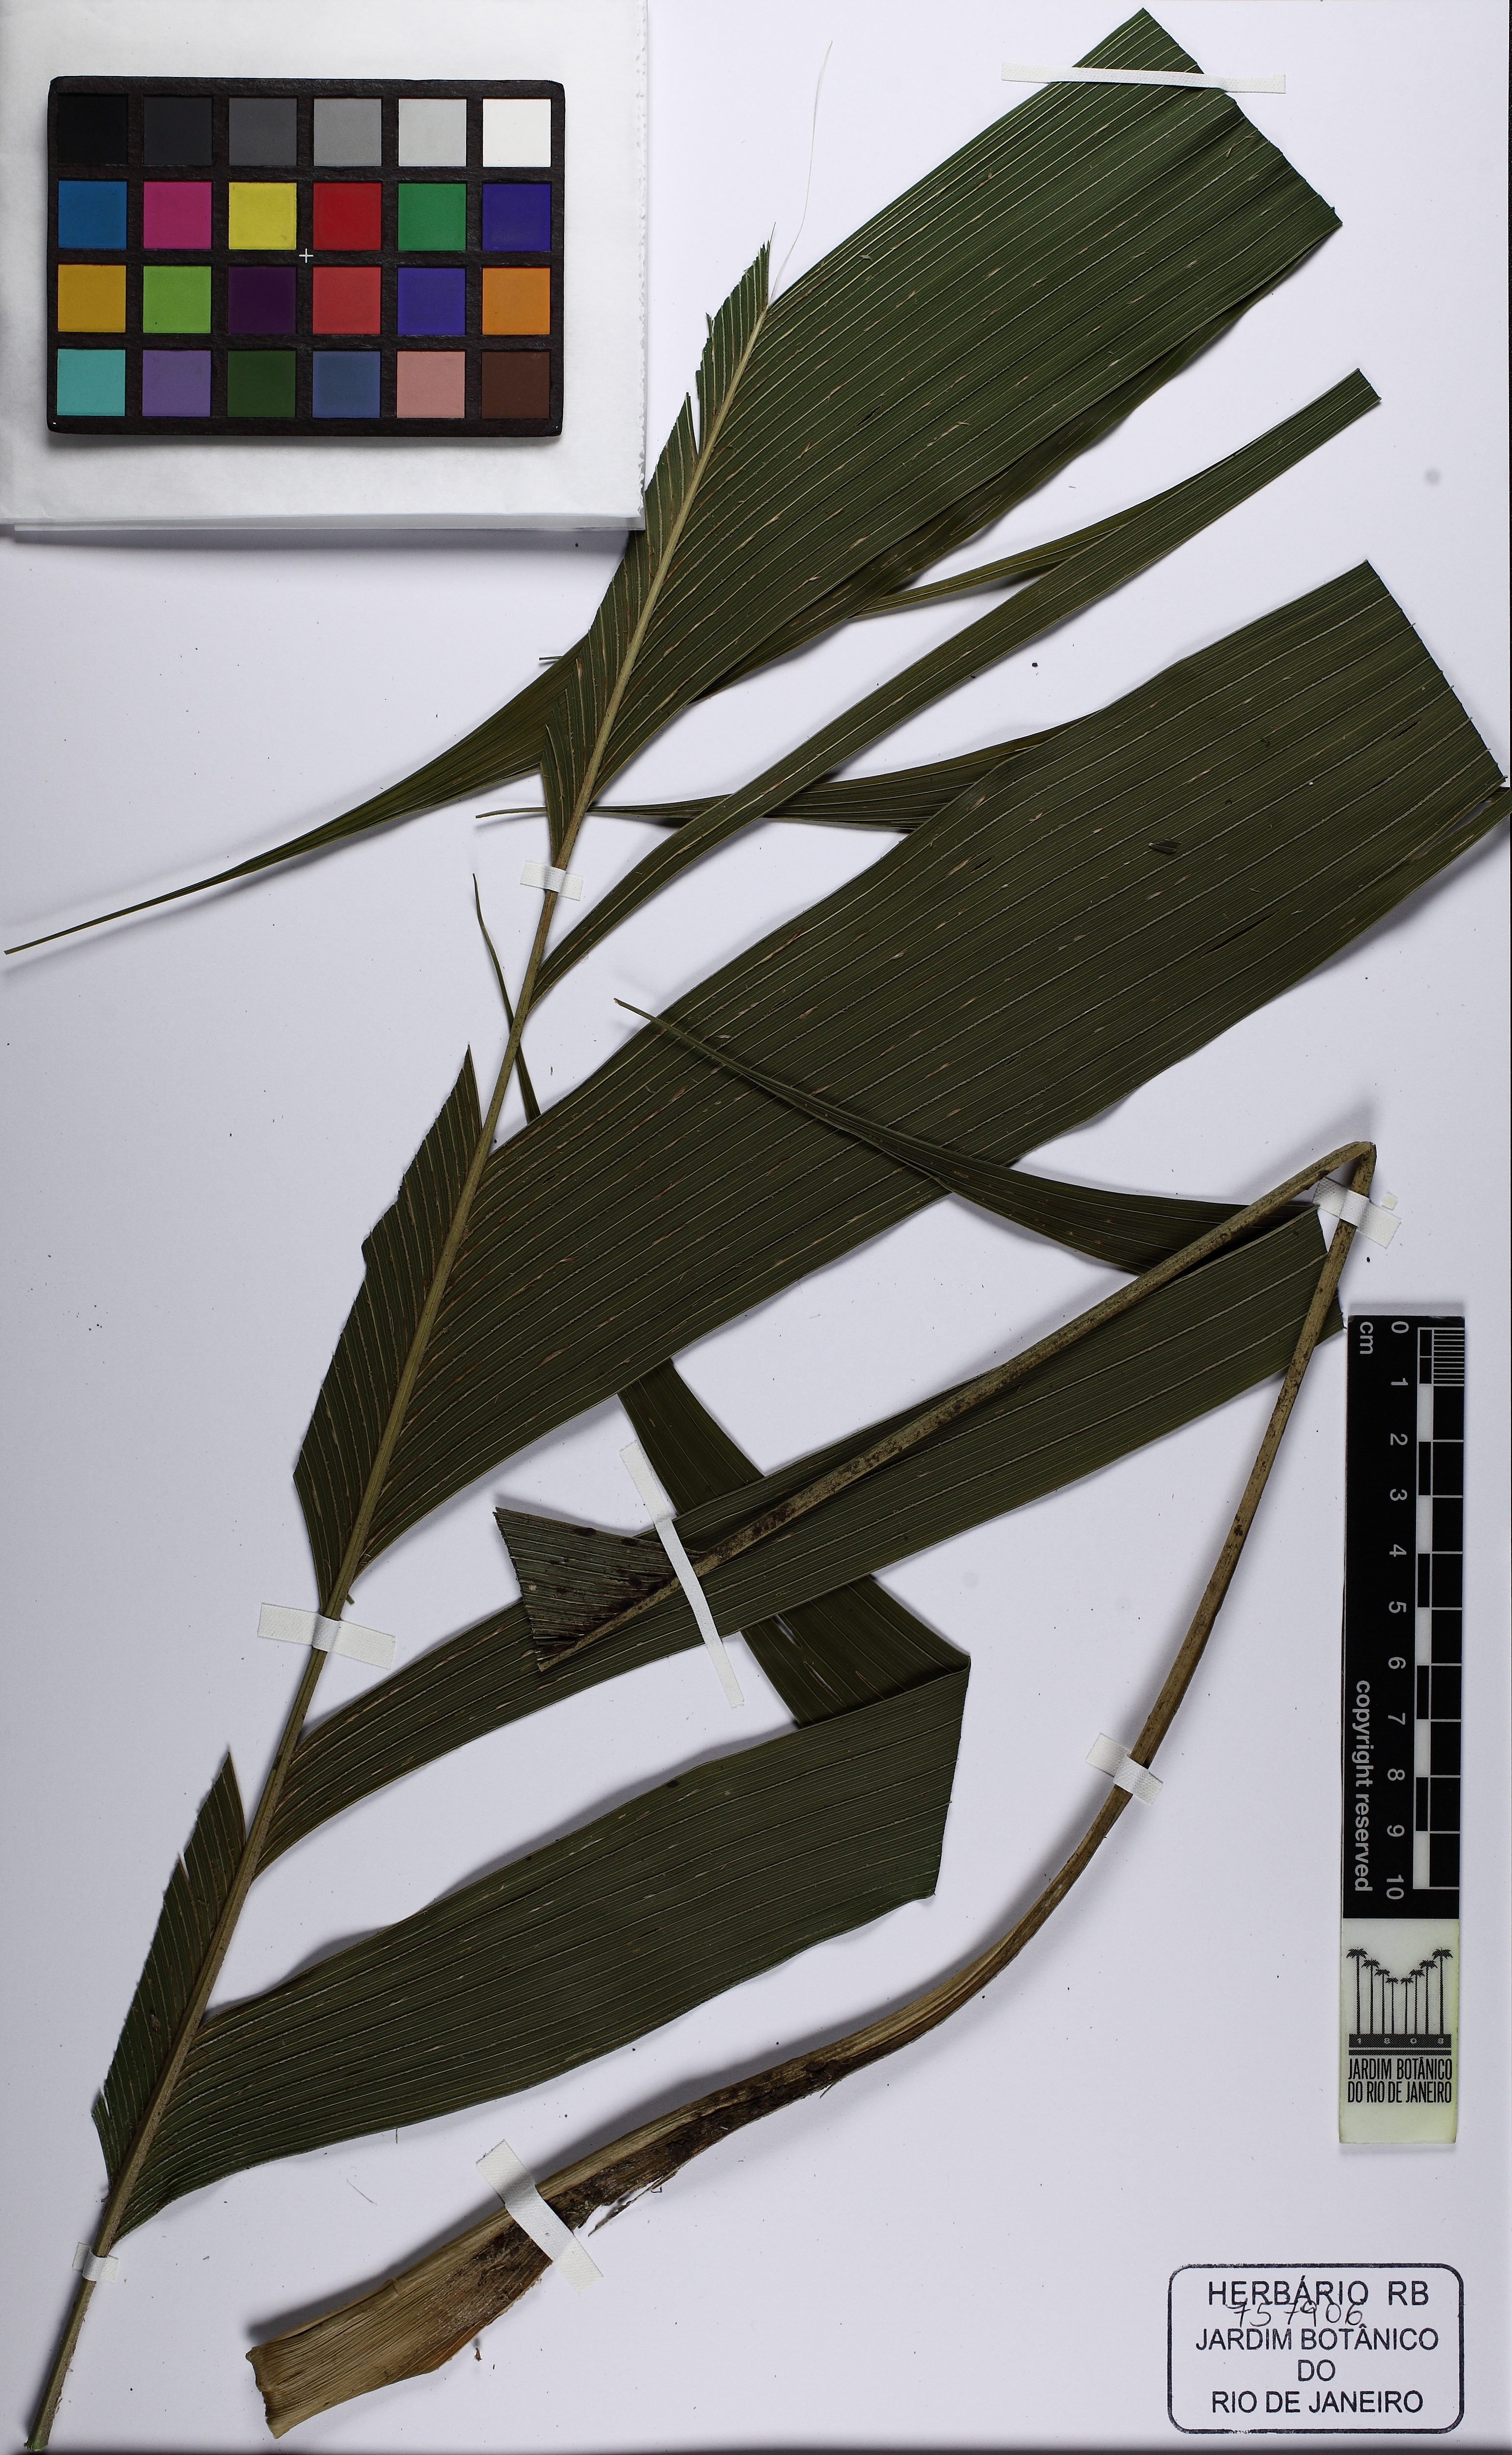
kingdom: Plantae
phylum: Tracheophyta
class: Liliopsida
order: Arecales
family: Arecaceae
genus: Geonoma
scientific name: Geonoma
